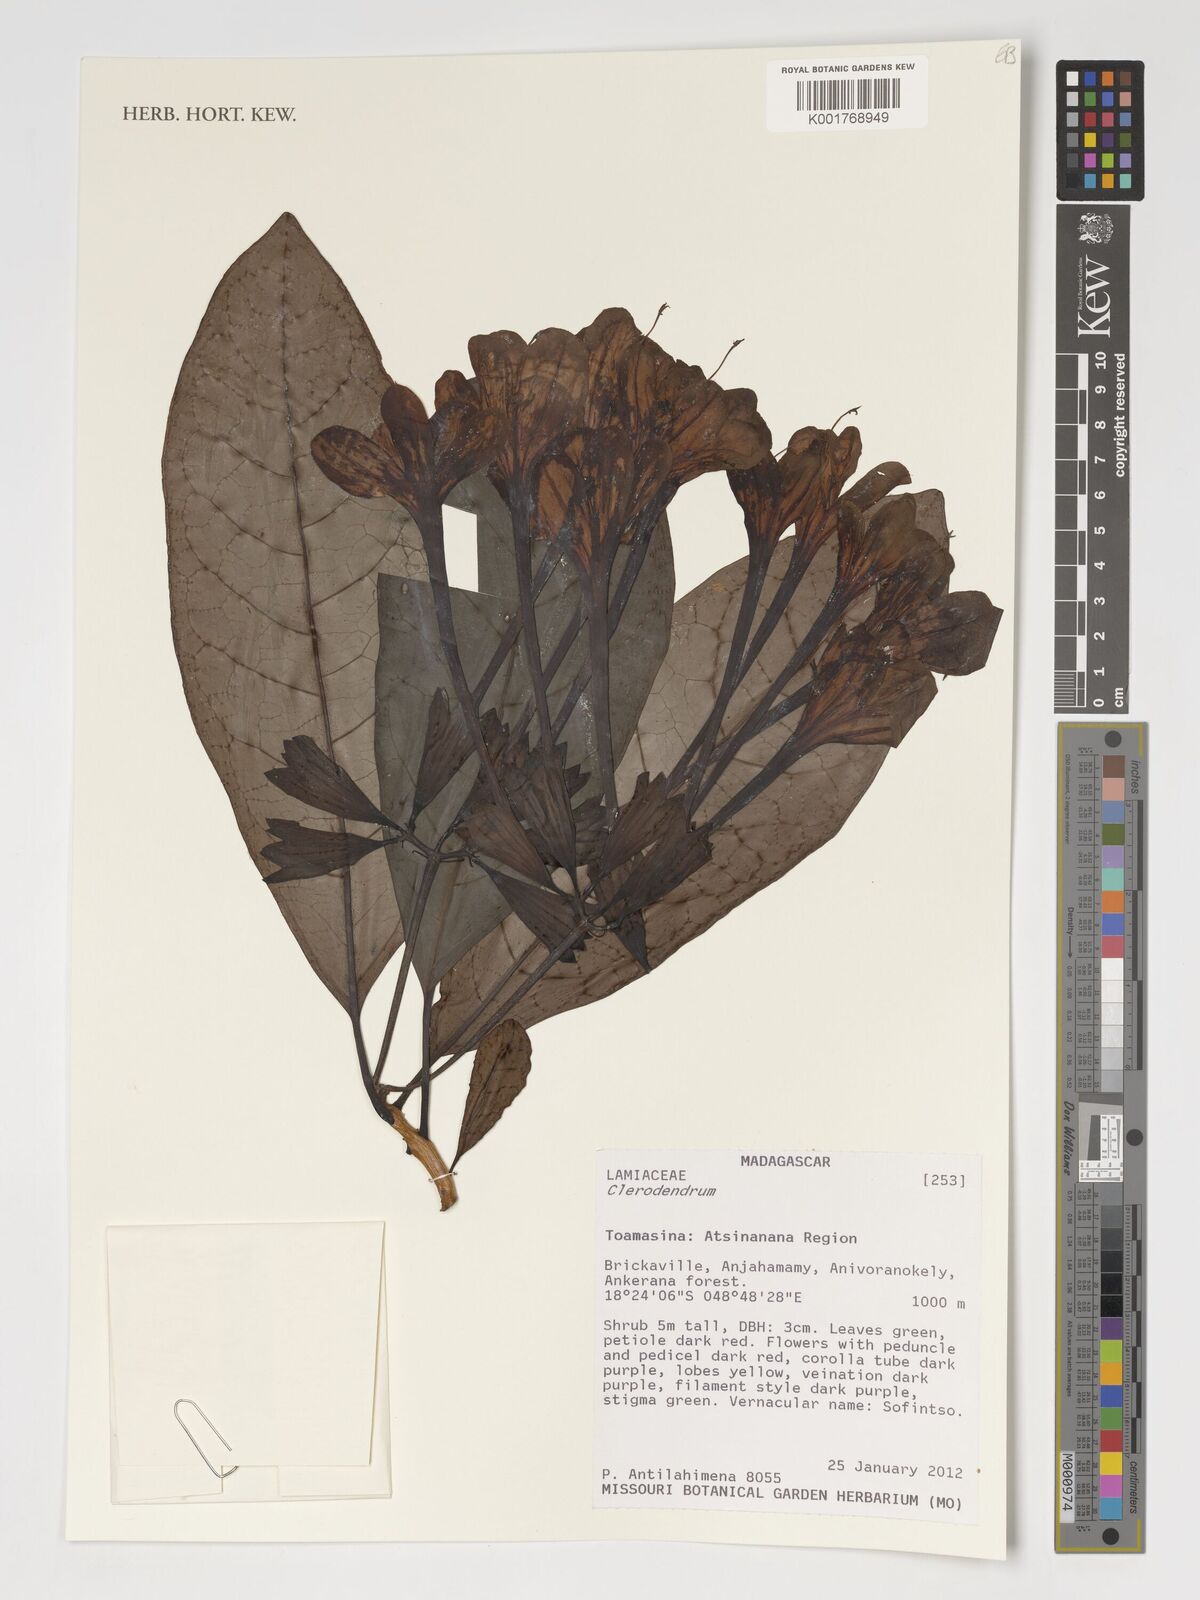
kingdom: Plantae
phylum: Tracheophyta
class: Magnoliopsida
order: Lamiales
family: Lamiaceae
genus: Clerodendrum
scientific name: Clerodendrum
